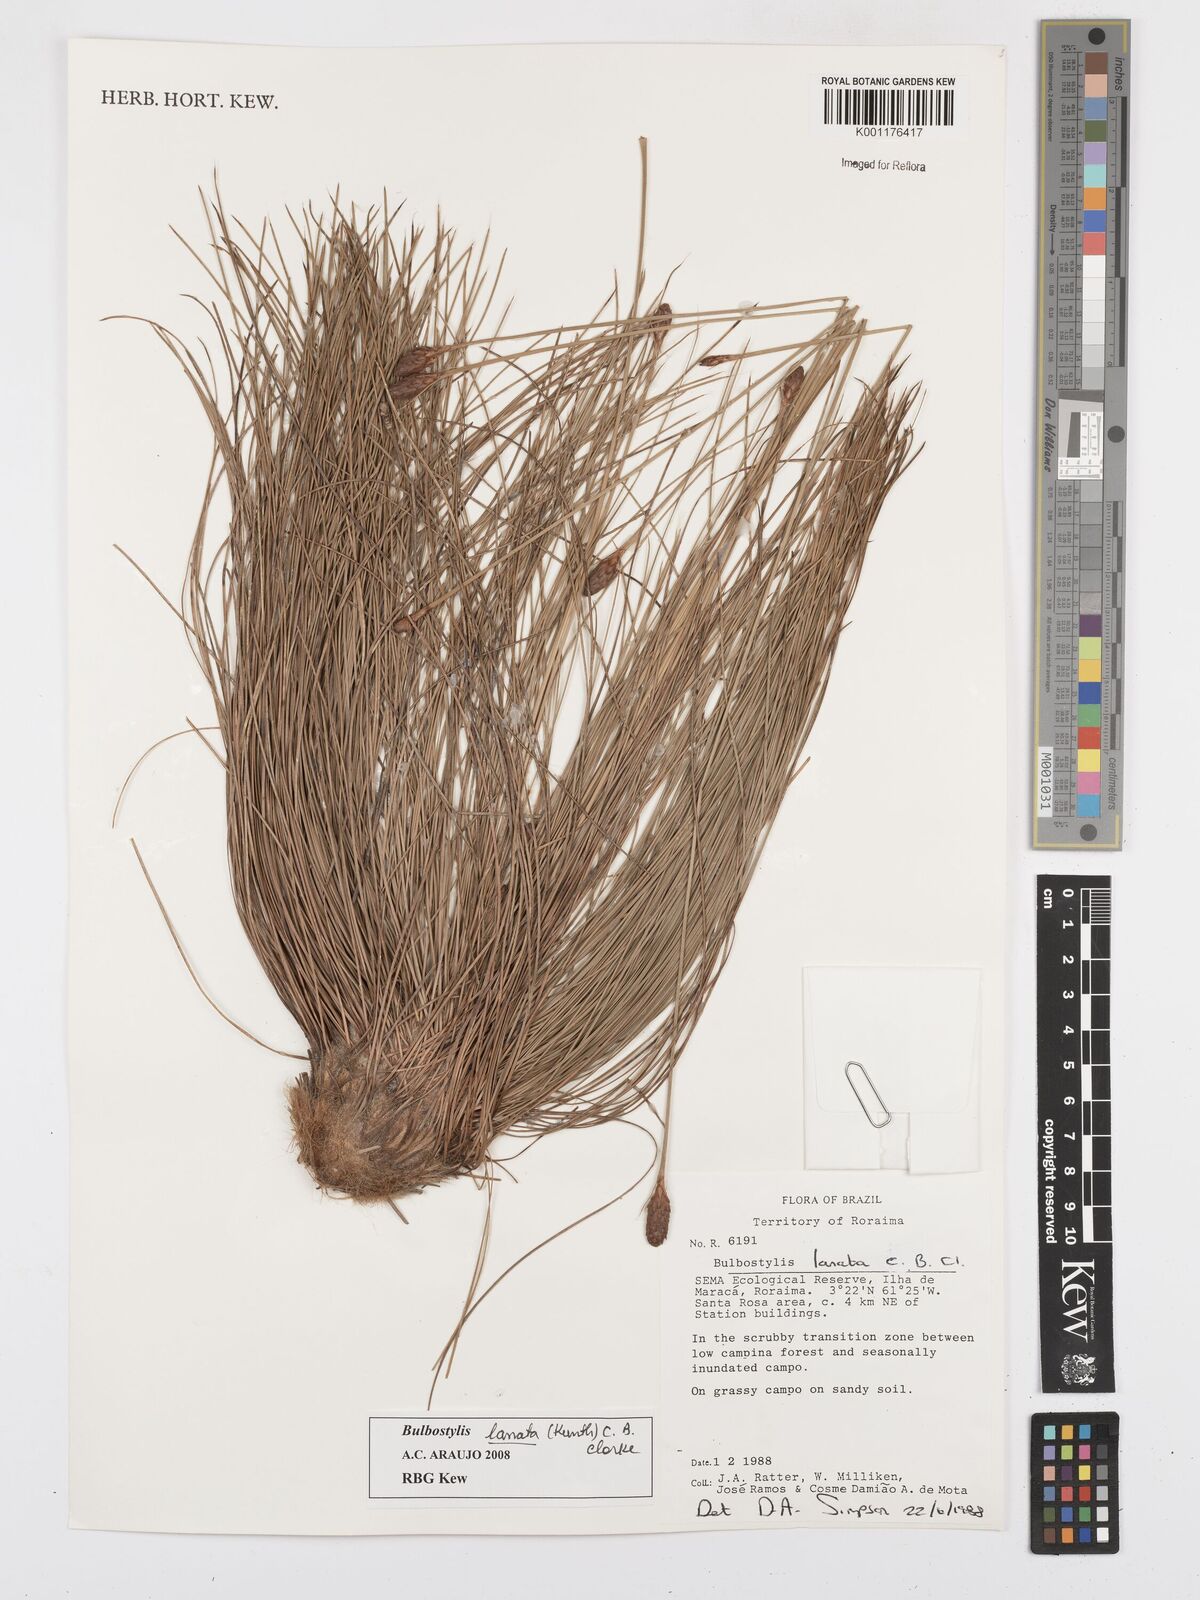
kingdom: Plantae
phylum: Tracheophyta
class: Liliopsida
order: Poales
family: Cyperaceae
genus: Bulbostylis
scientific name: Bulbostylis lanata
